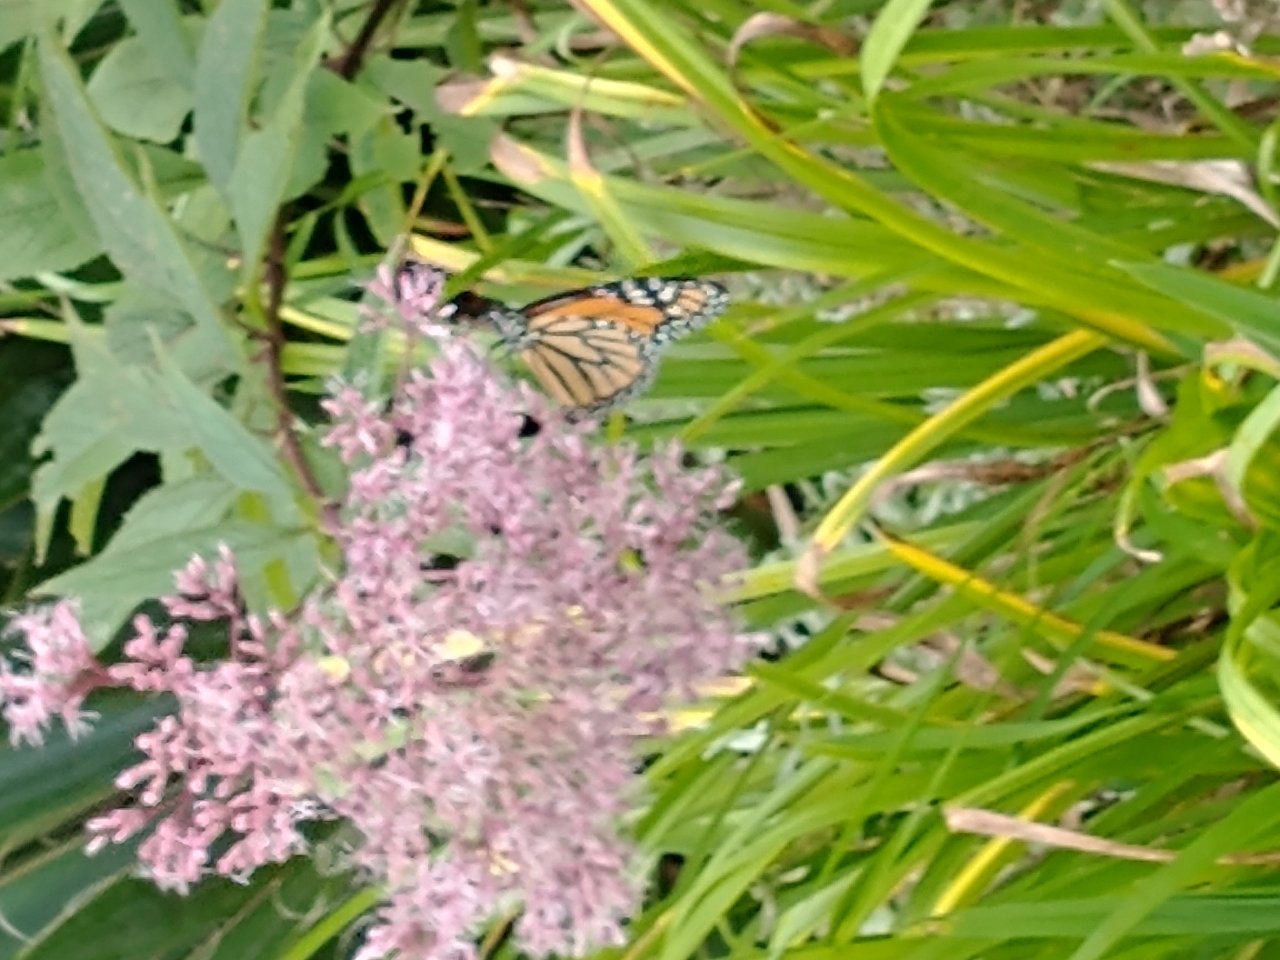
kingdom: Animalia
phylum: Arthropoda
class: Insecta
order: Lepidoptera
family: Nymphalidae
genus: Danaus
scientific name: Danaus plexippus
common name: Monarch
